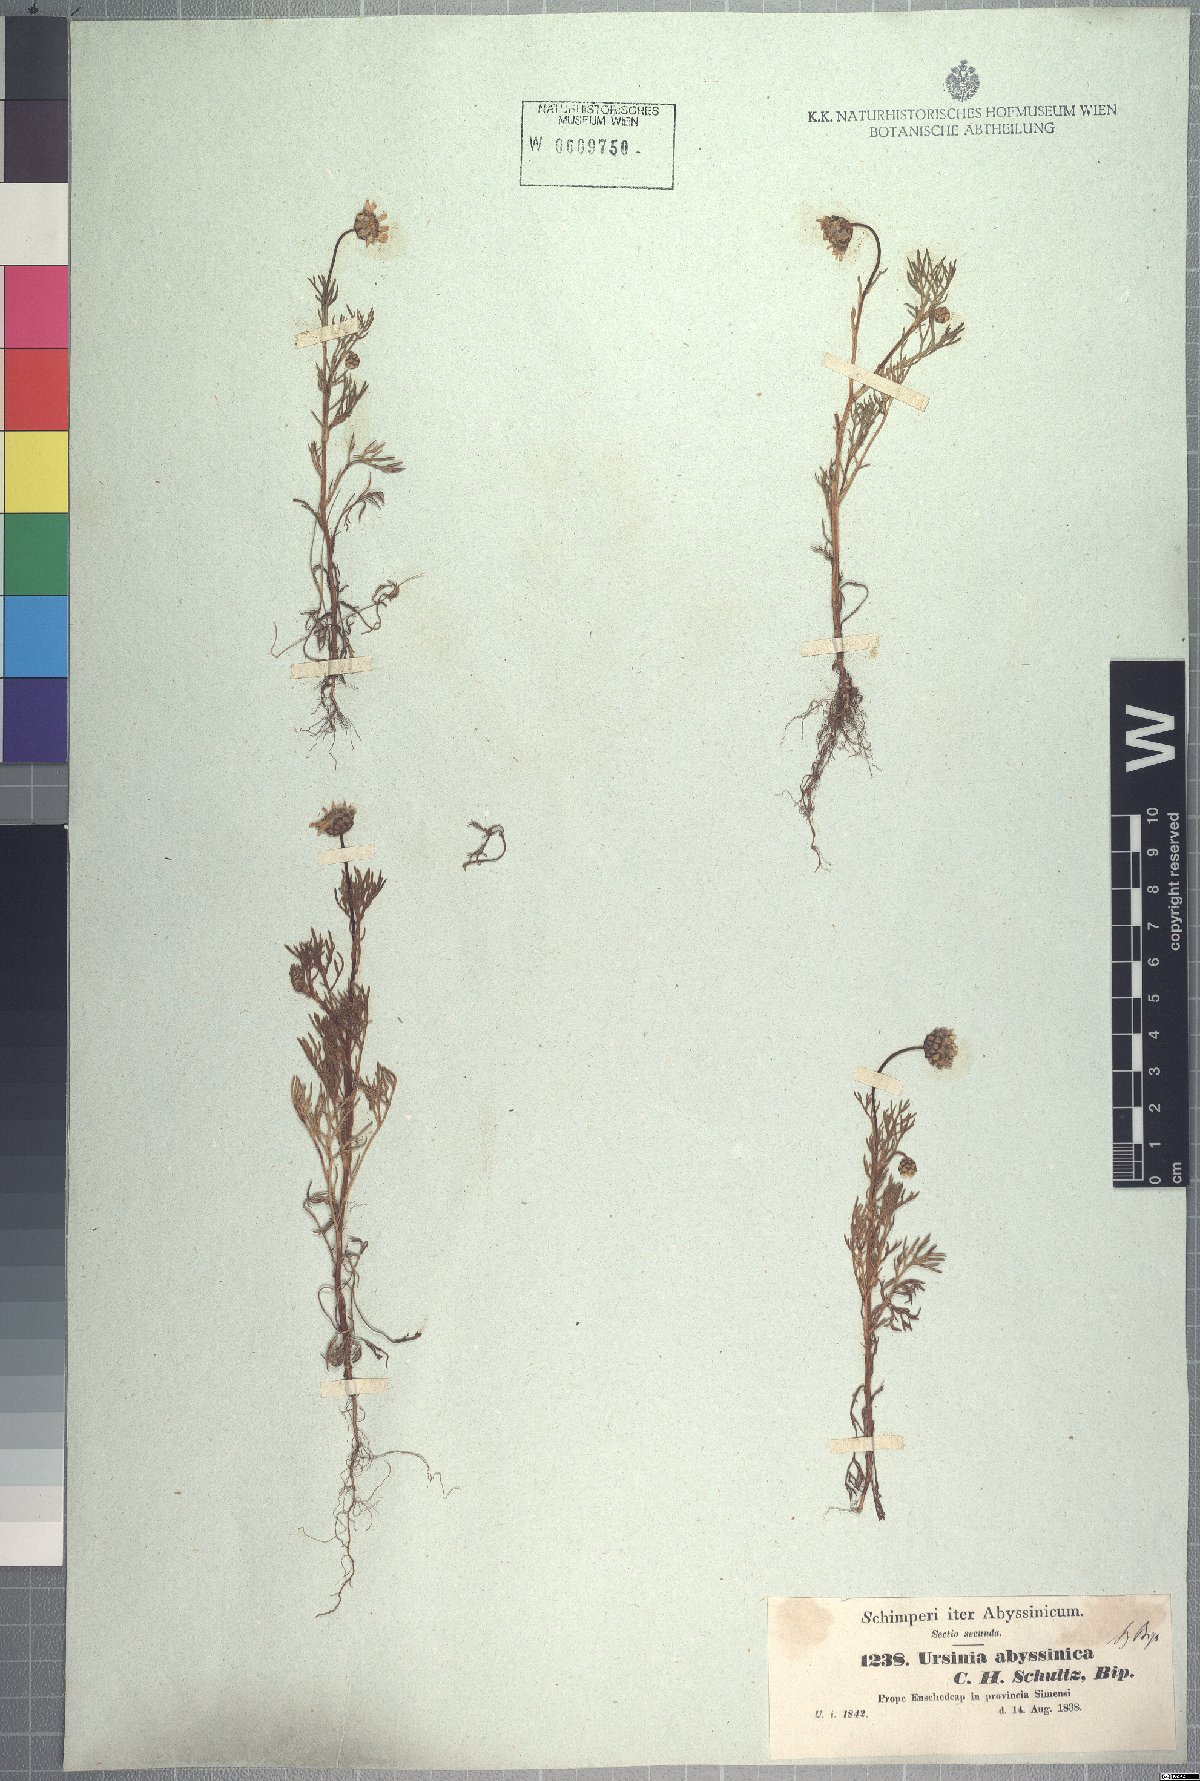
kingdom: Plantae
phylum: Tracheophyta
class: Magnoliopsida
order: Asterales
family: Asteraceae
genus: Ursinia
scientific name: Ursinia nana
